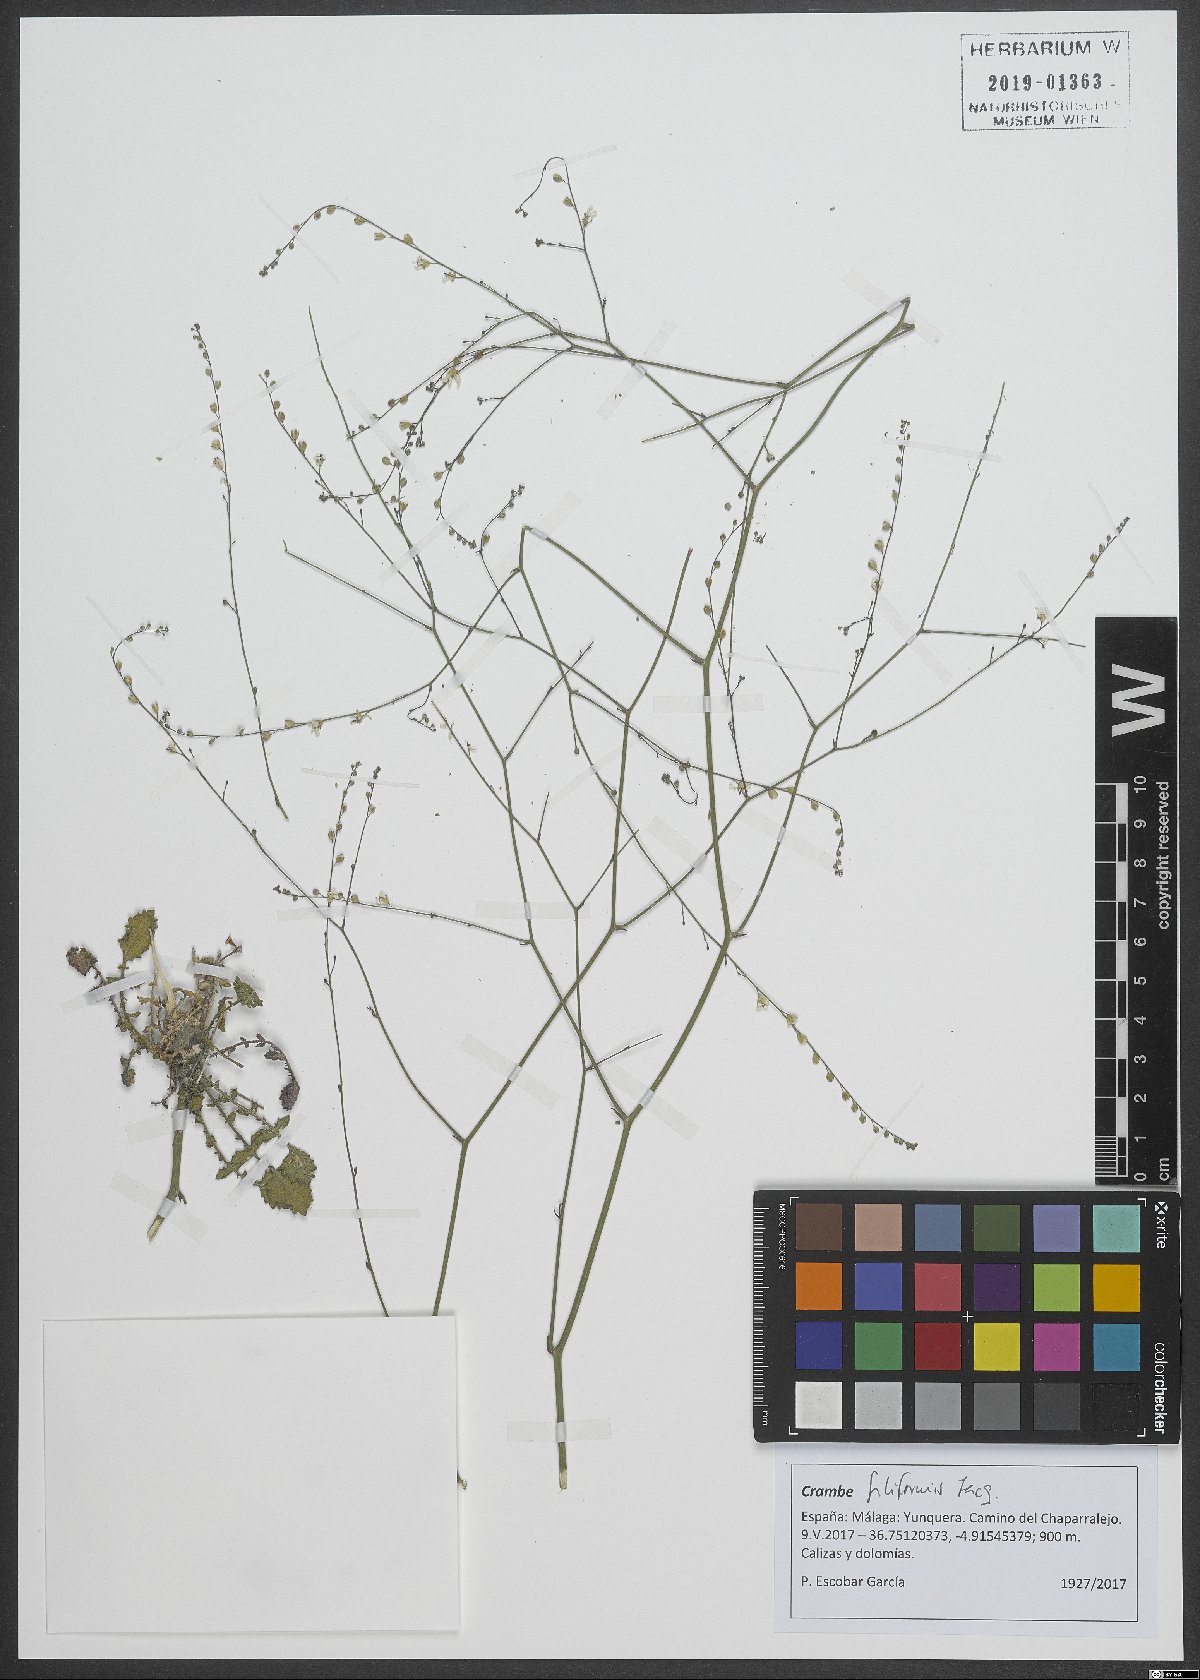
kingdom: Plantae
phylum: Tracheophyta
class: Magnoliopsida
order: Brassicales
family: Brassicaceae
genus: Crambe
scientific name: Crambe filiformis
